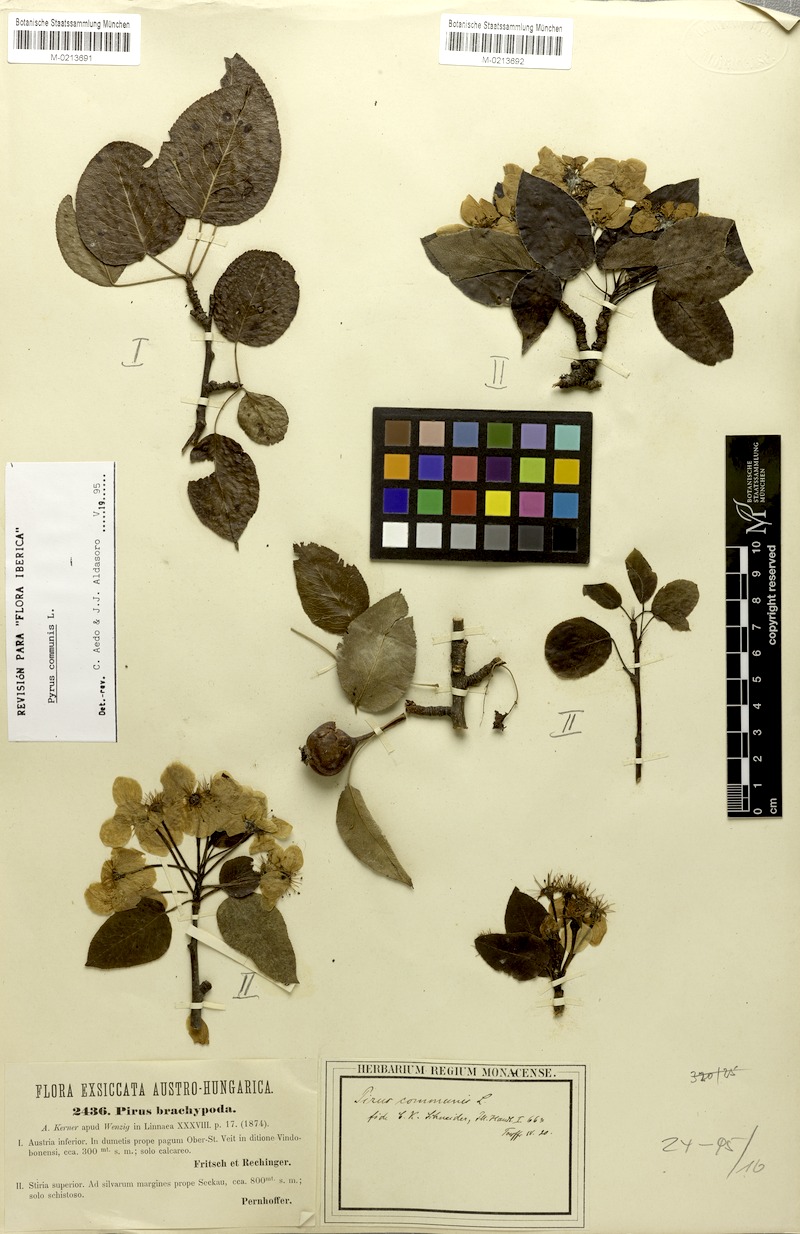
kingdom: Plantae
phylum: Tracheophyta
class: Magnoliopsida
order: Rosales
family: Rosaceae
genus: Pyrus
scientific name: Pyrus communis
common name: Pear
